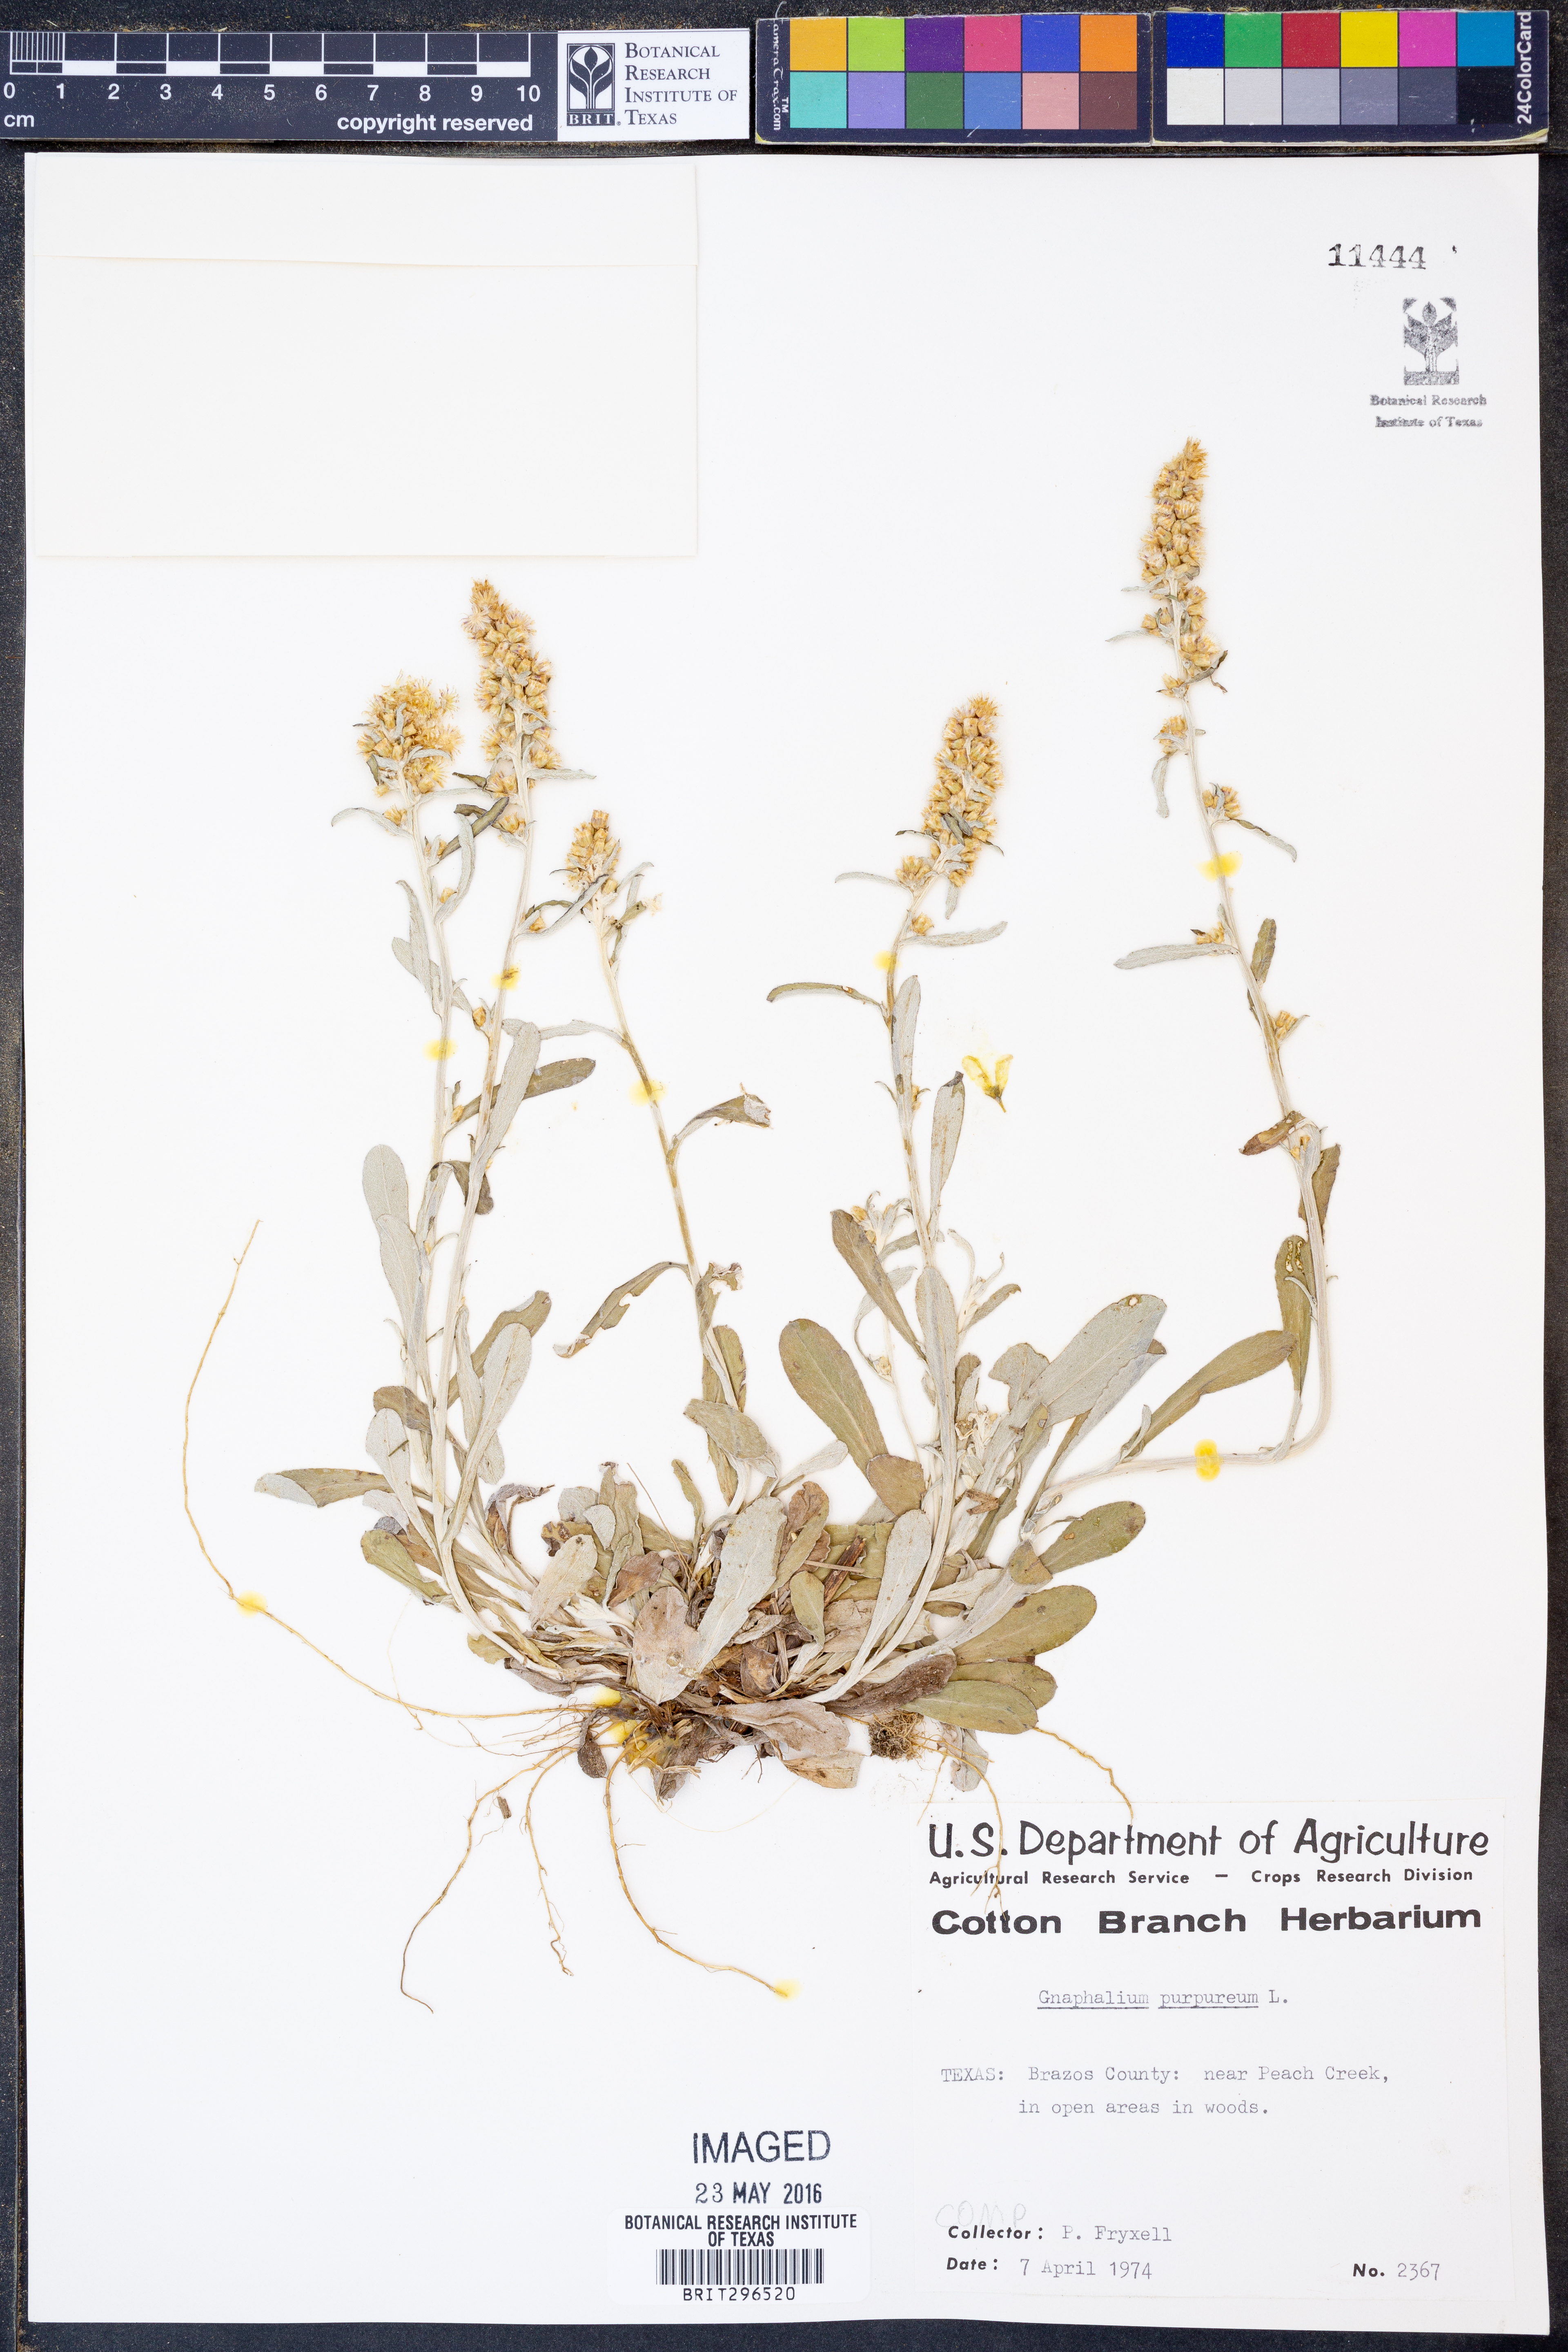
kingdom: Plantae
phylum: Tracheophyta
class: Magnoliopsida
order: Asterales
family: Asteraceae
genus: Gamochaeta
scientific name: Gamochaeta purpurea
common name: Purple cudweed
